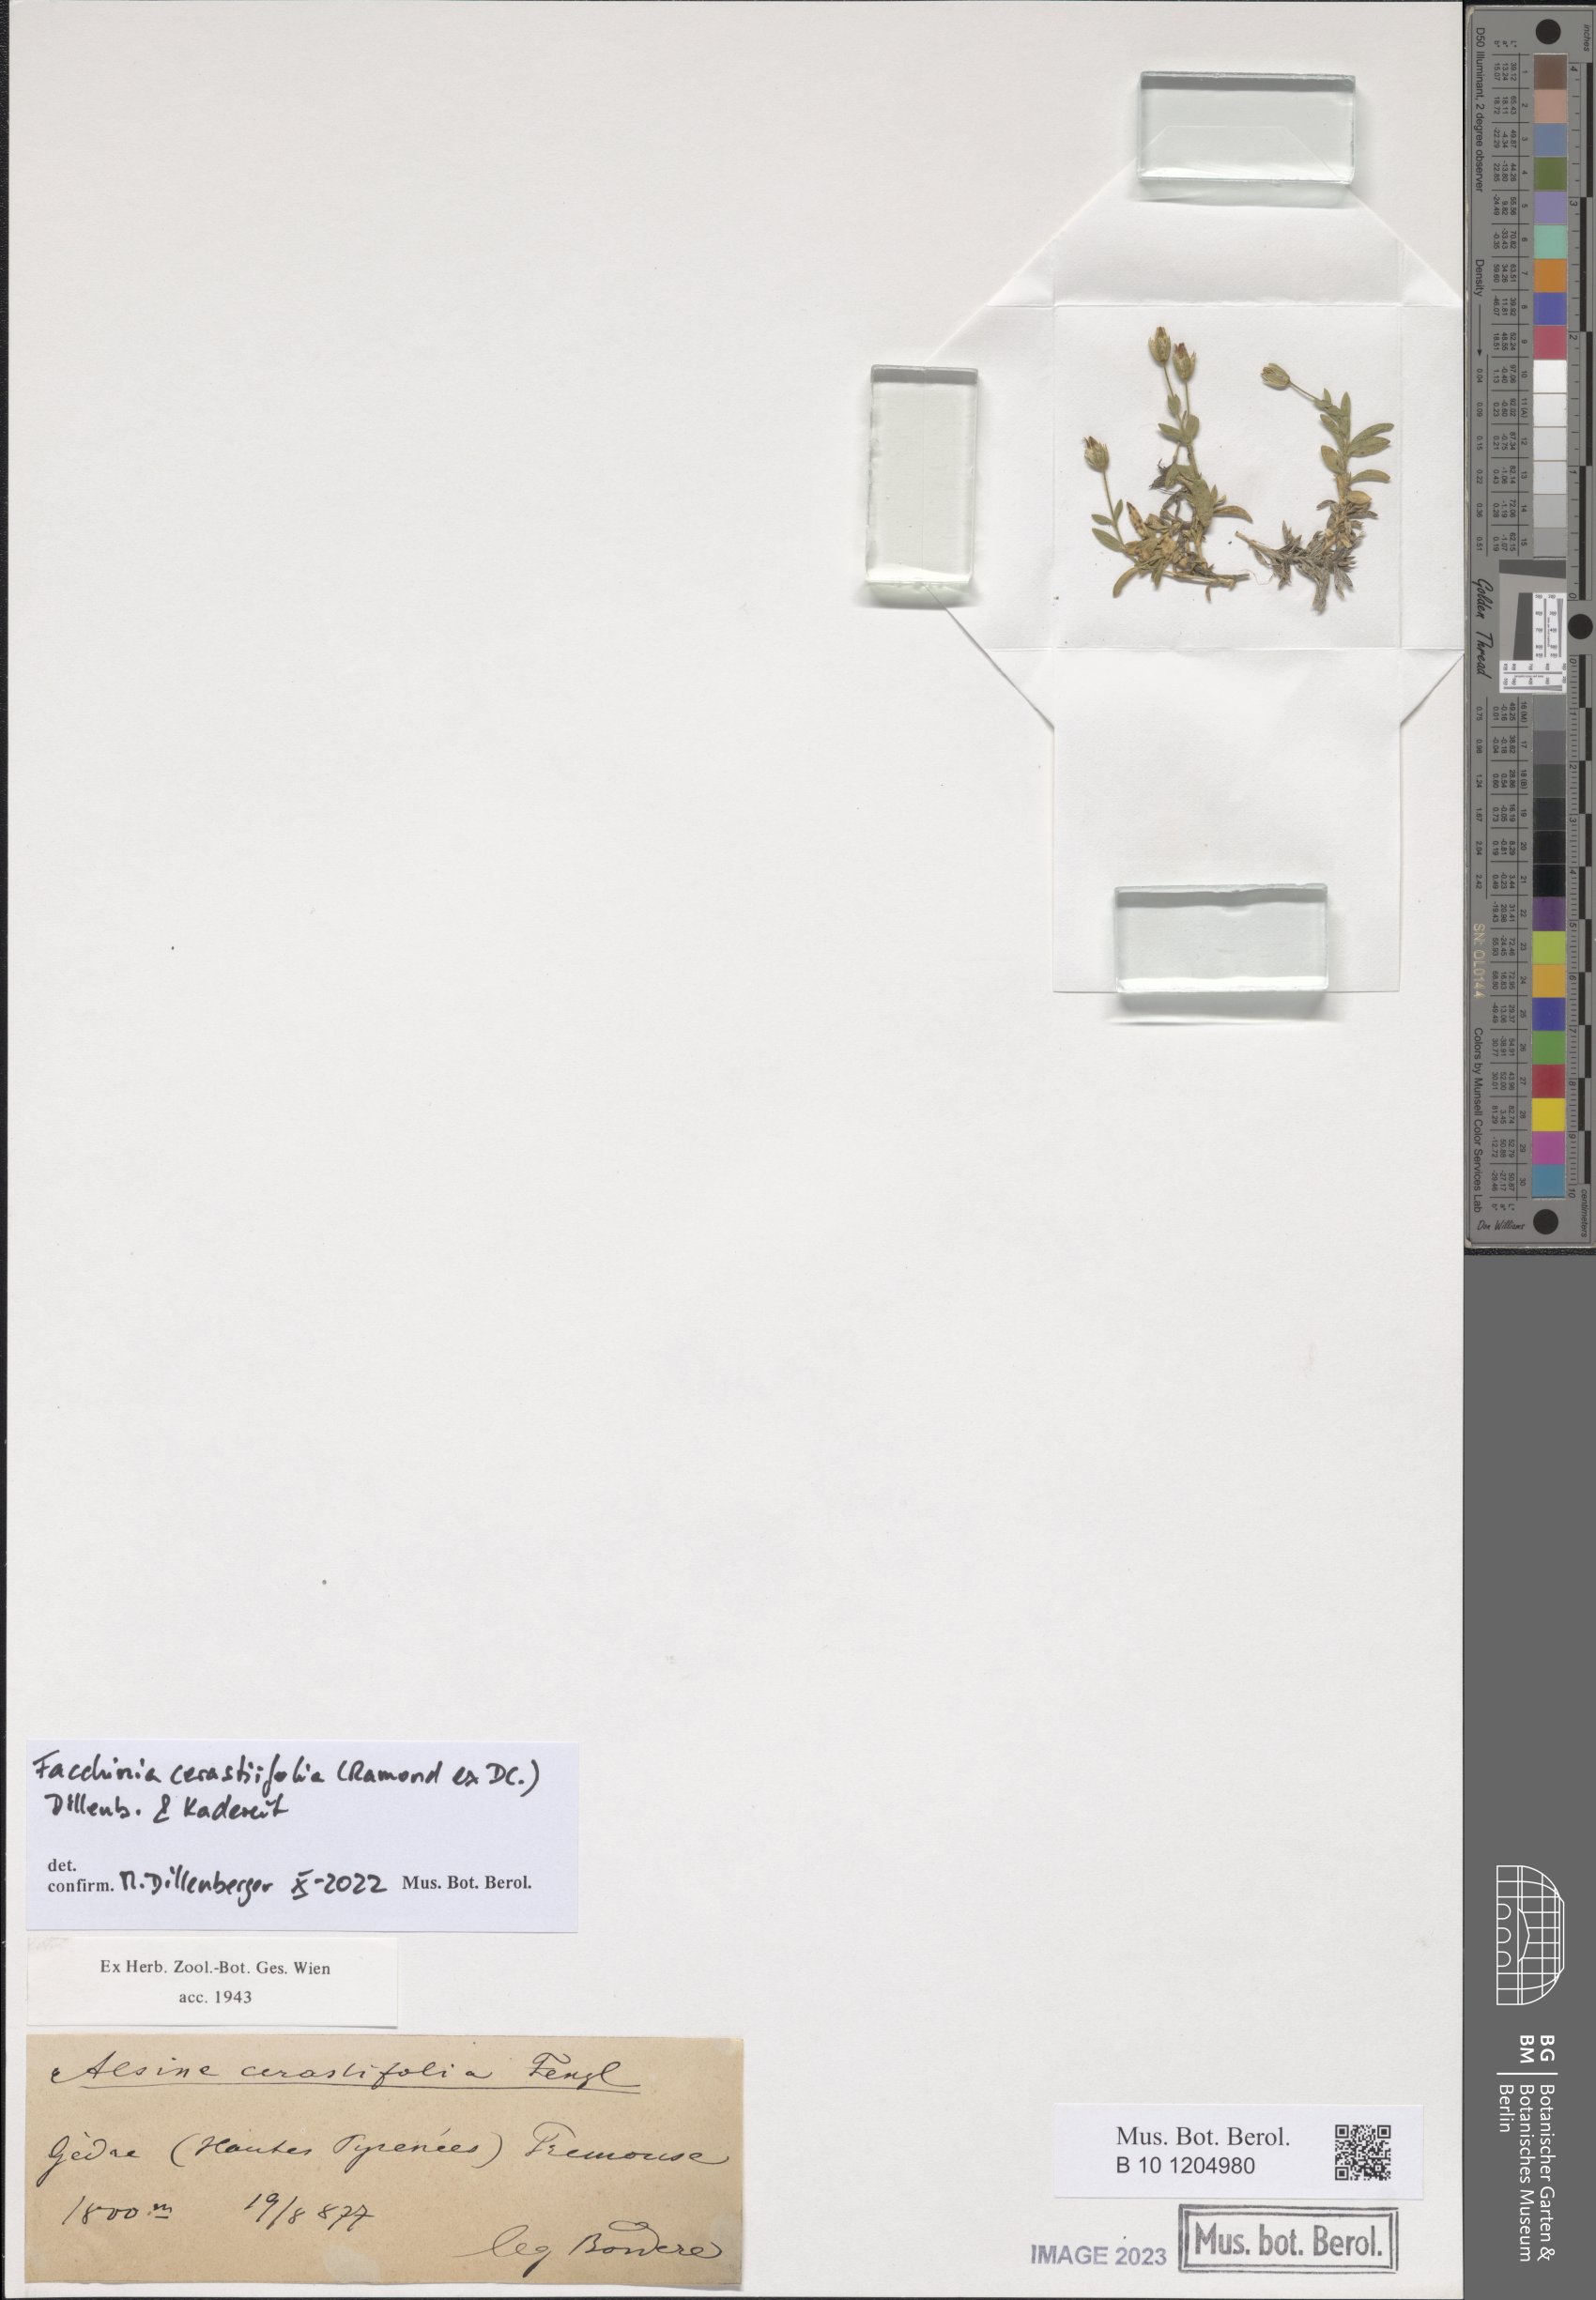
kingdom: Plantae
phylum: Tracheophyta
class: Magnoliopsida
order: Caryophyllales
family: Caryophyllaceae
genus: Facchinia
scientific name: Facchinia cerastiifolia
